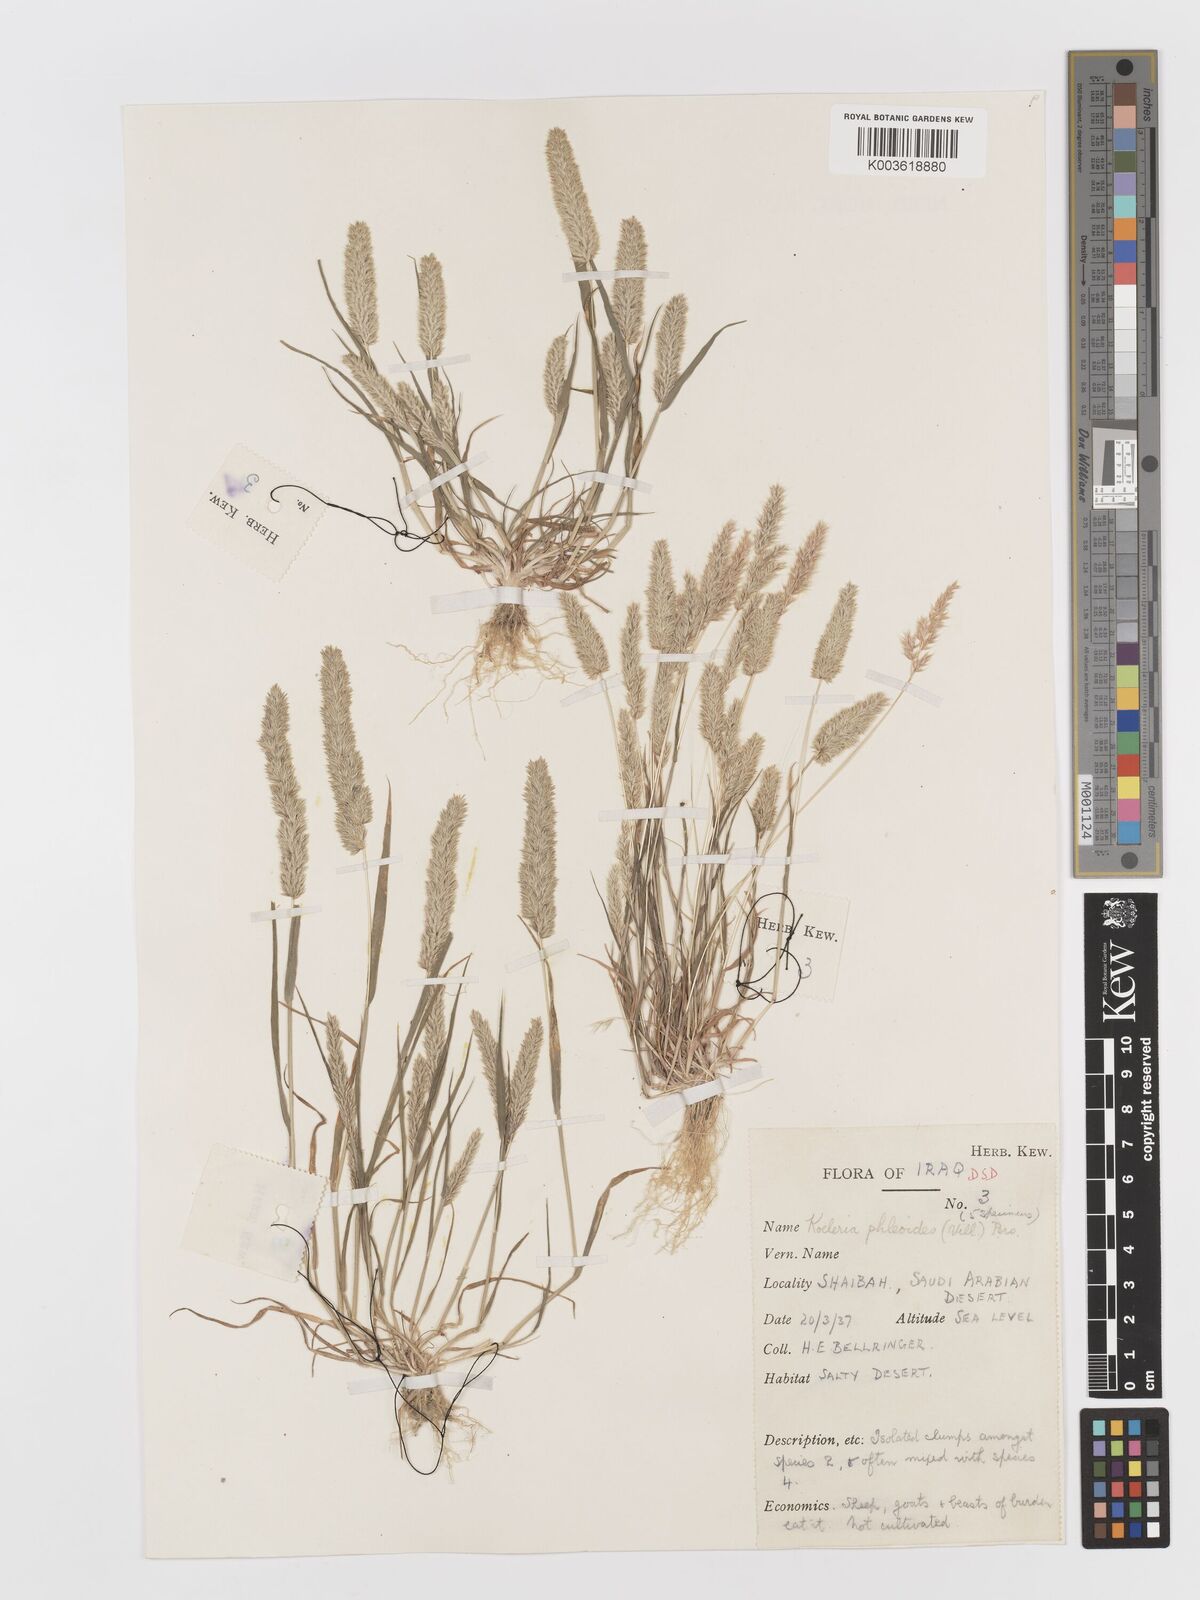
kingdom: Plantae
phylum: Tracheophyta
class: Liliopsida
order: Poales
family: Poaceae
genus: Rostraria
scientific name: Rostraria cristata
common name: Mediterranean hair-grass
